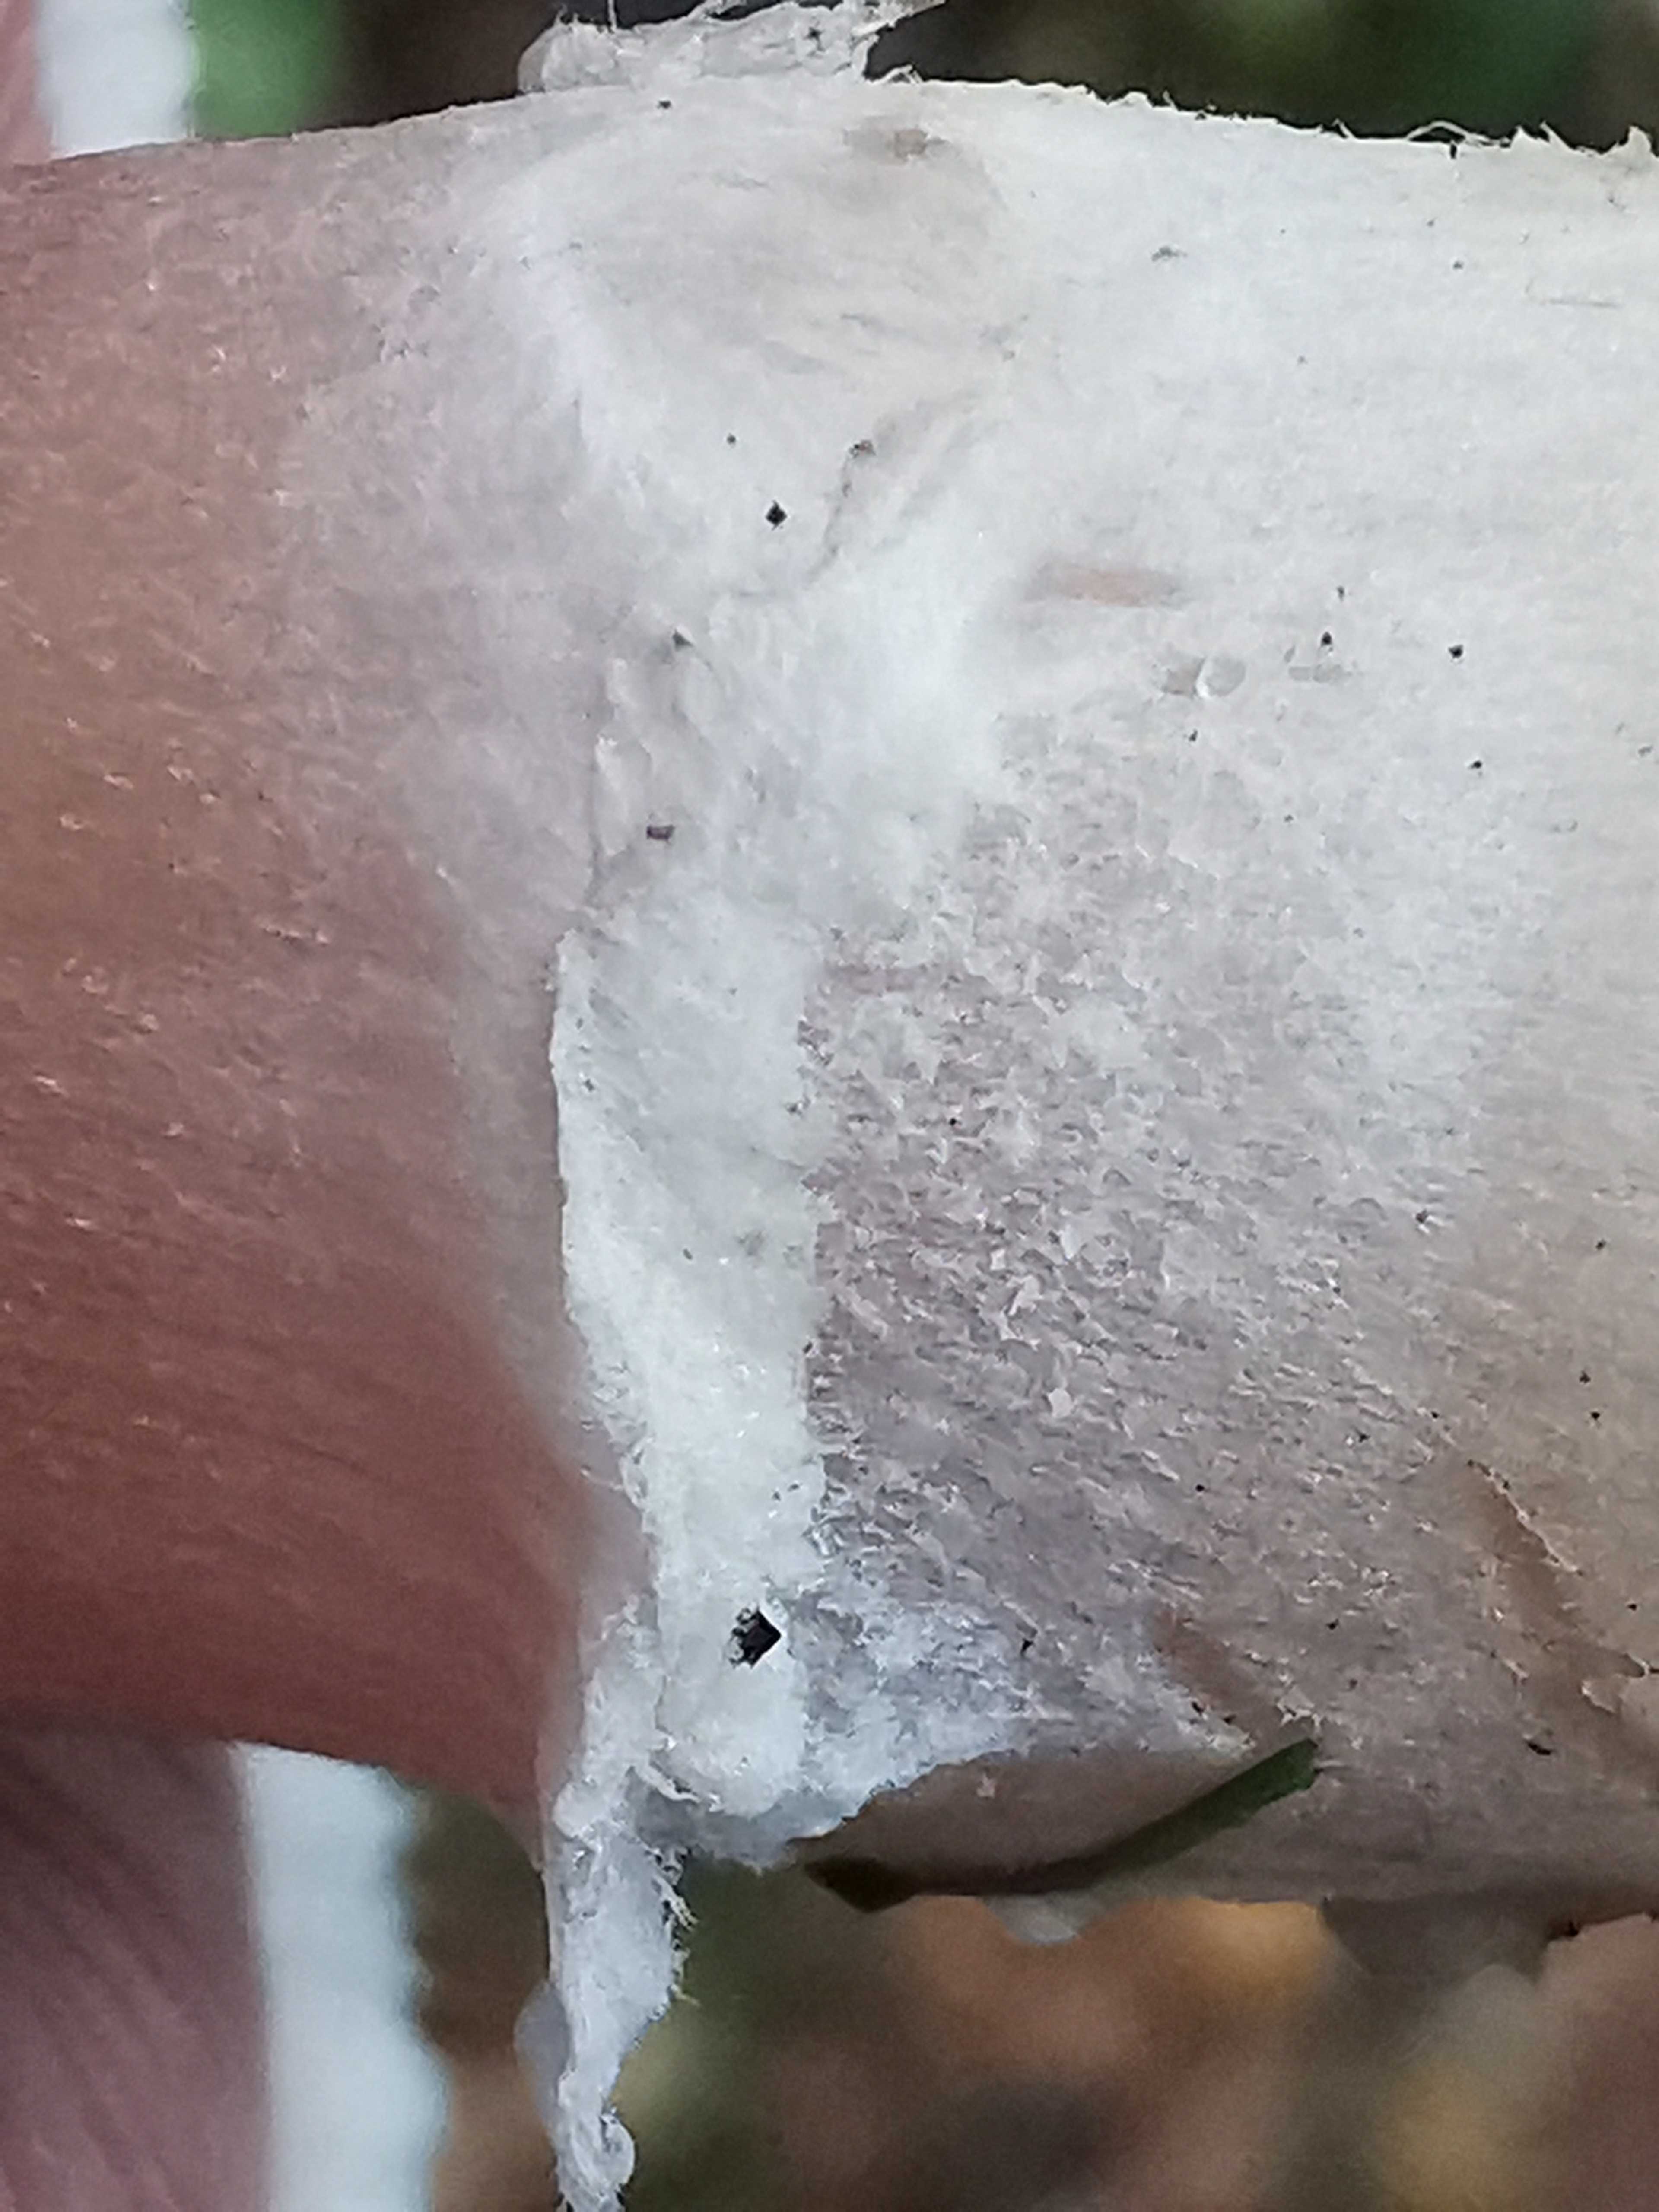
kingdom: Fungi
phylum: Basidiomycota
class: Agaricomycetes
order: Agaricales
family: Agaricaceae
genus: Agaricus
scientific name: Agaricus campestris
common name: mark-champignon
